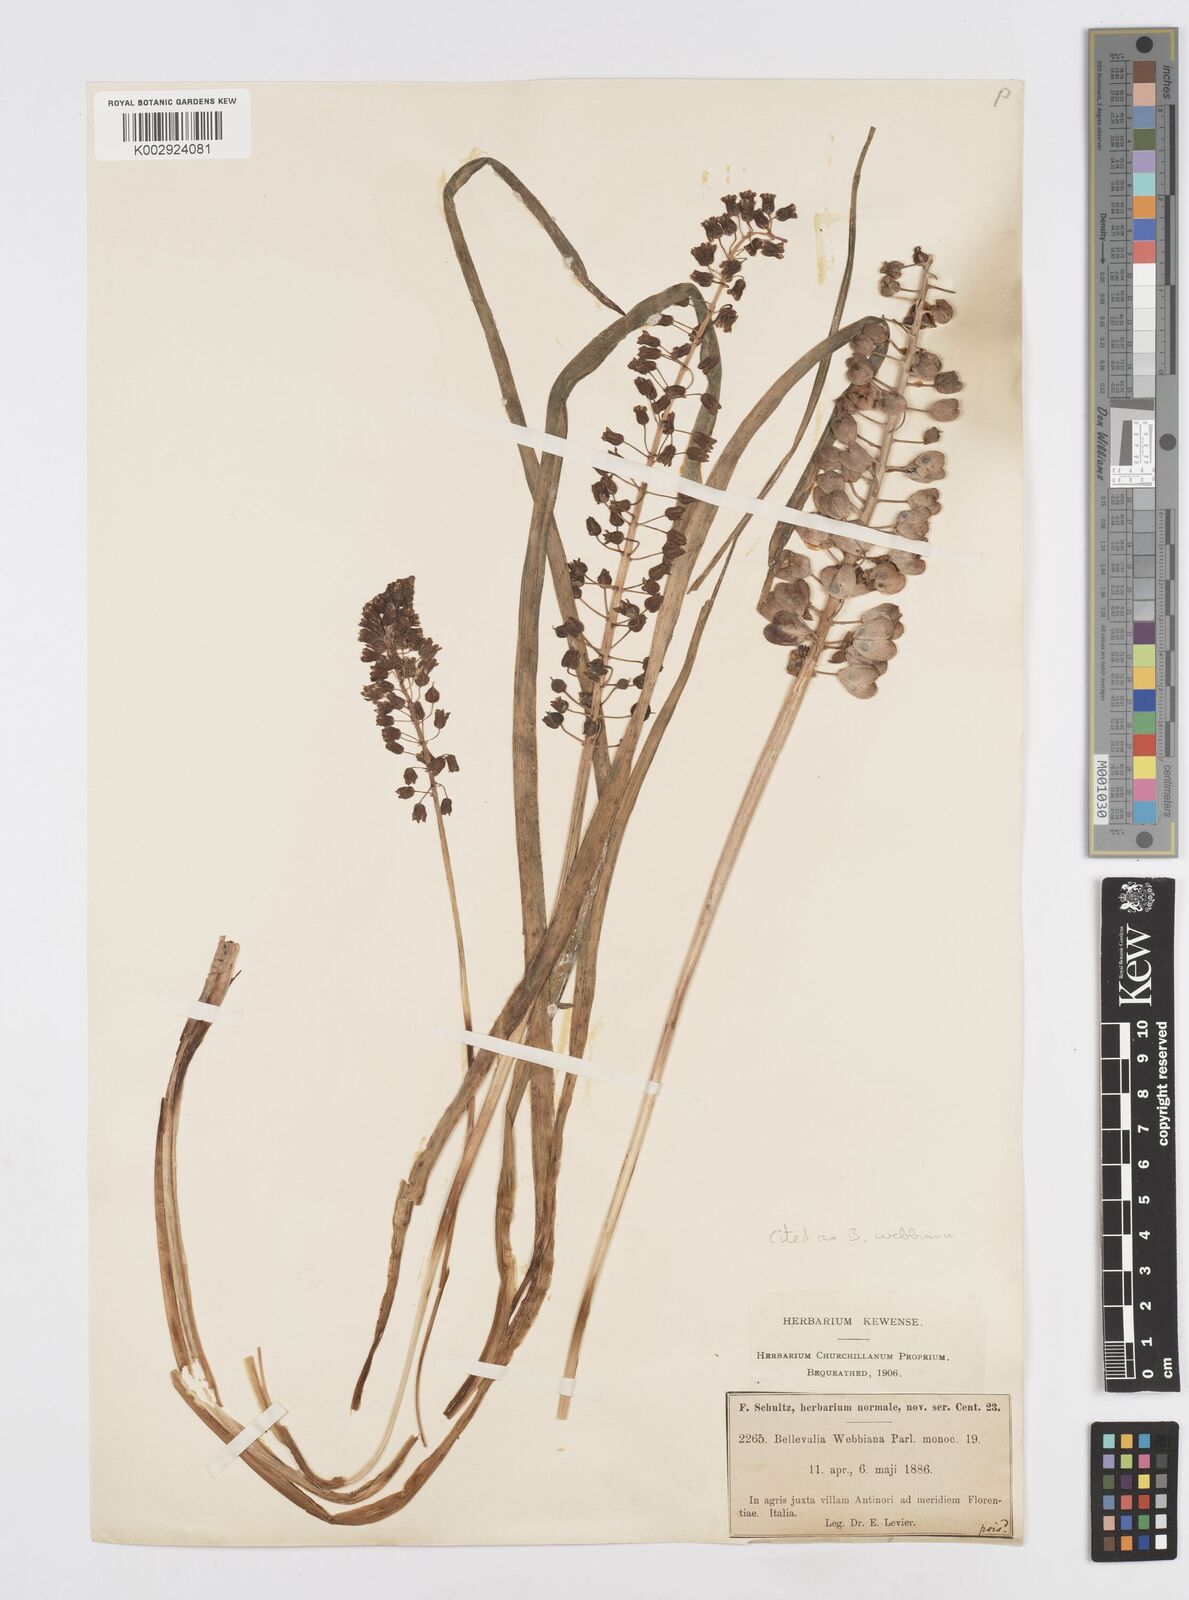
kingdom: Plantae
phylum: Tracheophyta
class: Liliopsida
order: Asparagales
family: Asparagaceae
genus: Bellevalia
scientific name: Bellevalia webbiana
